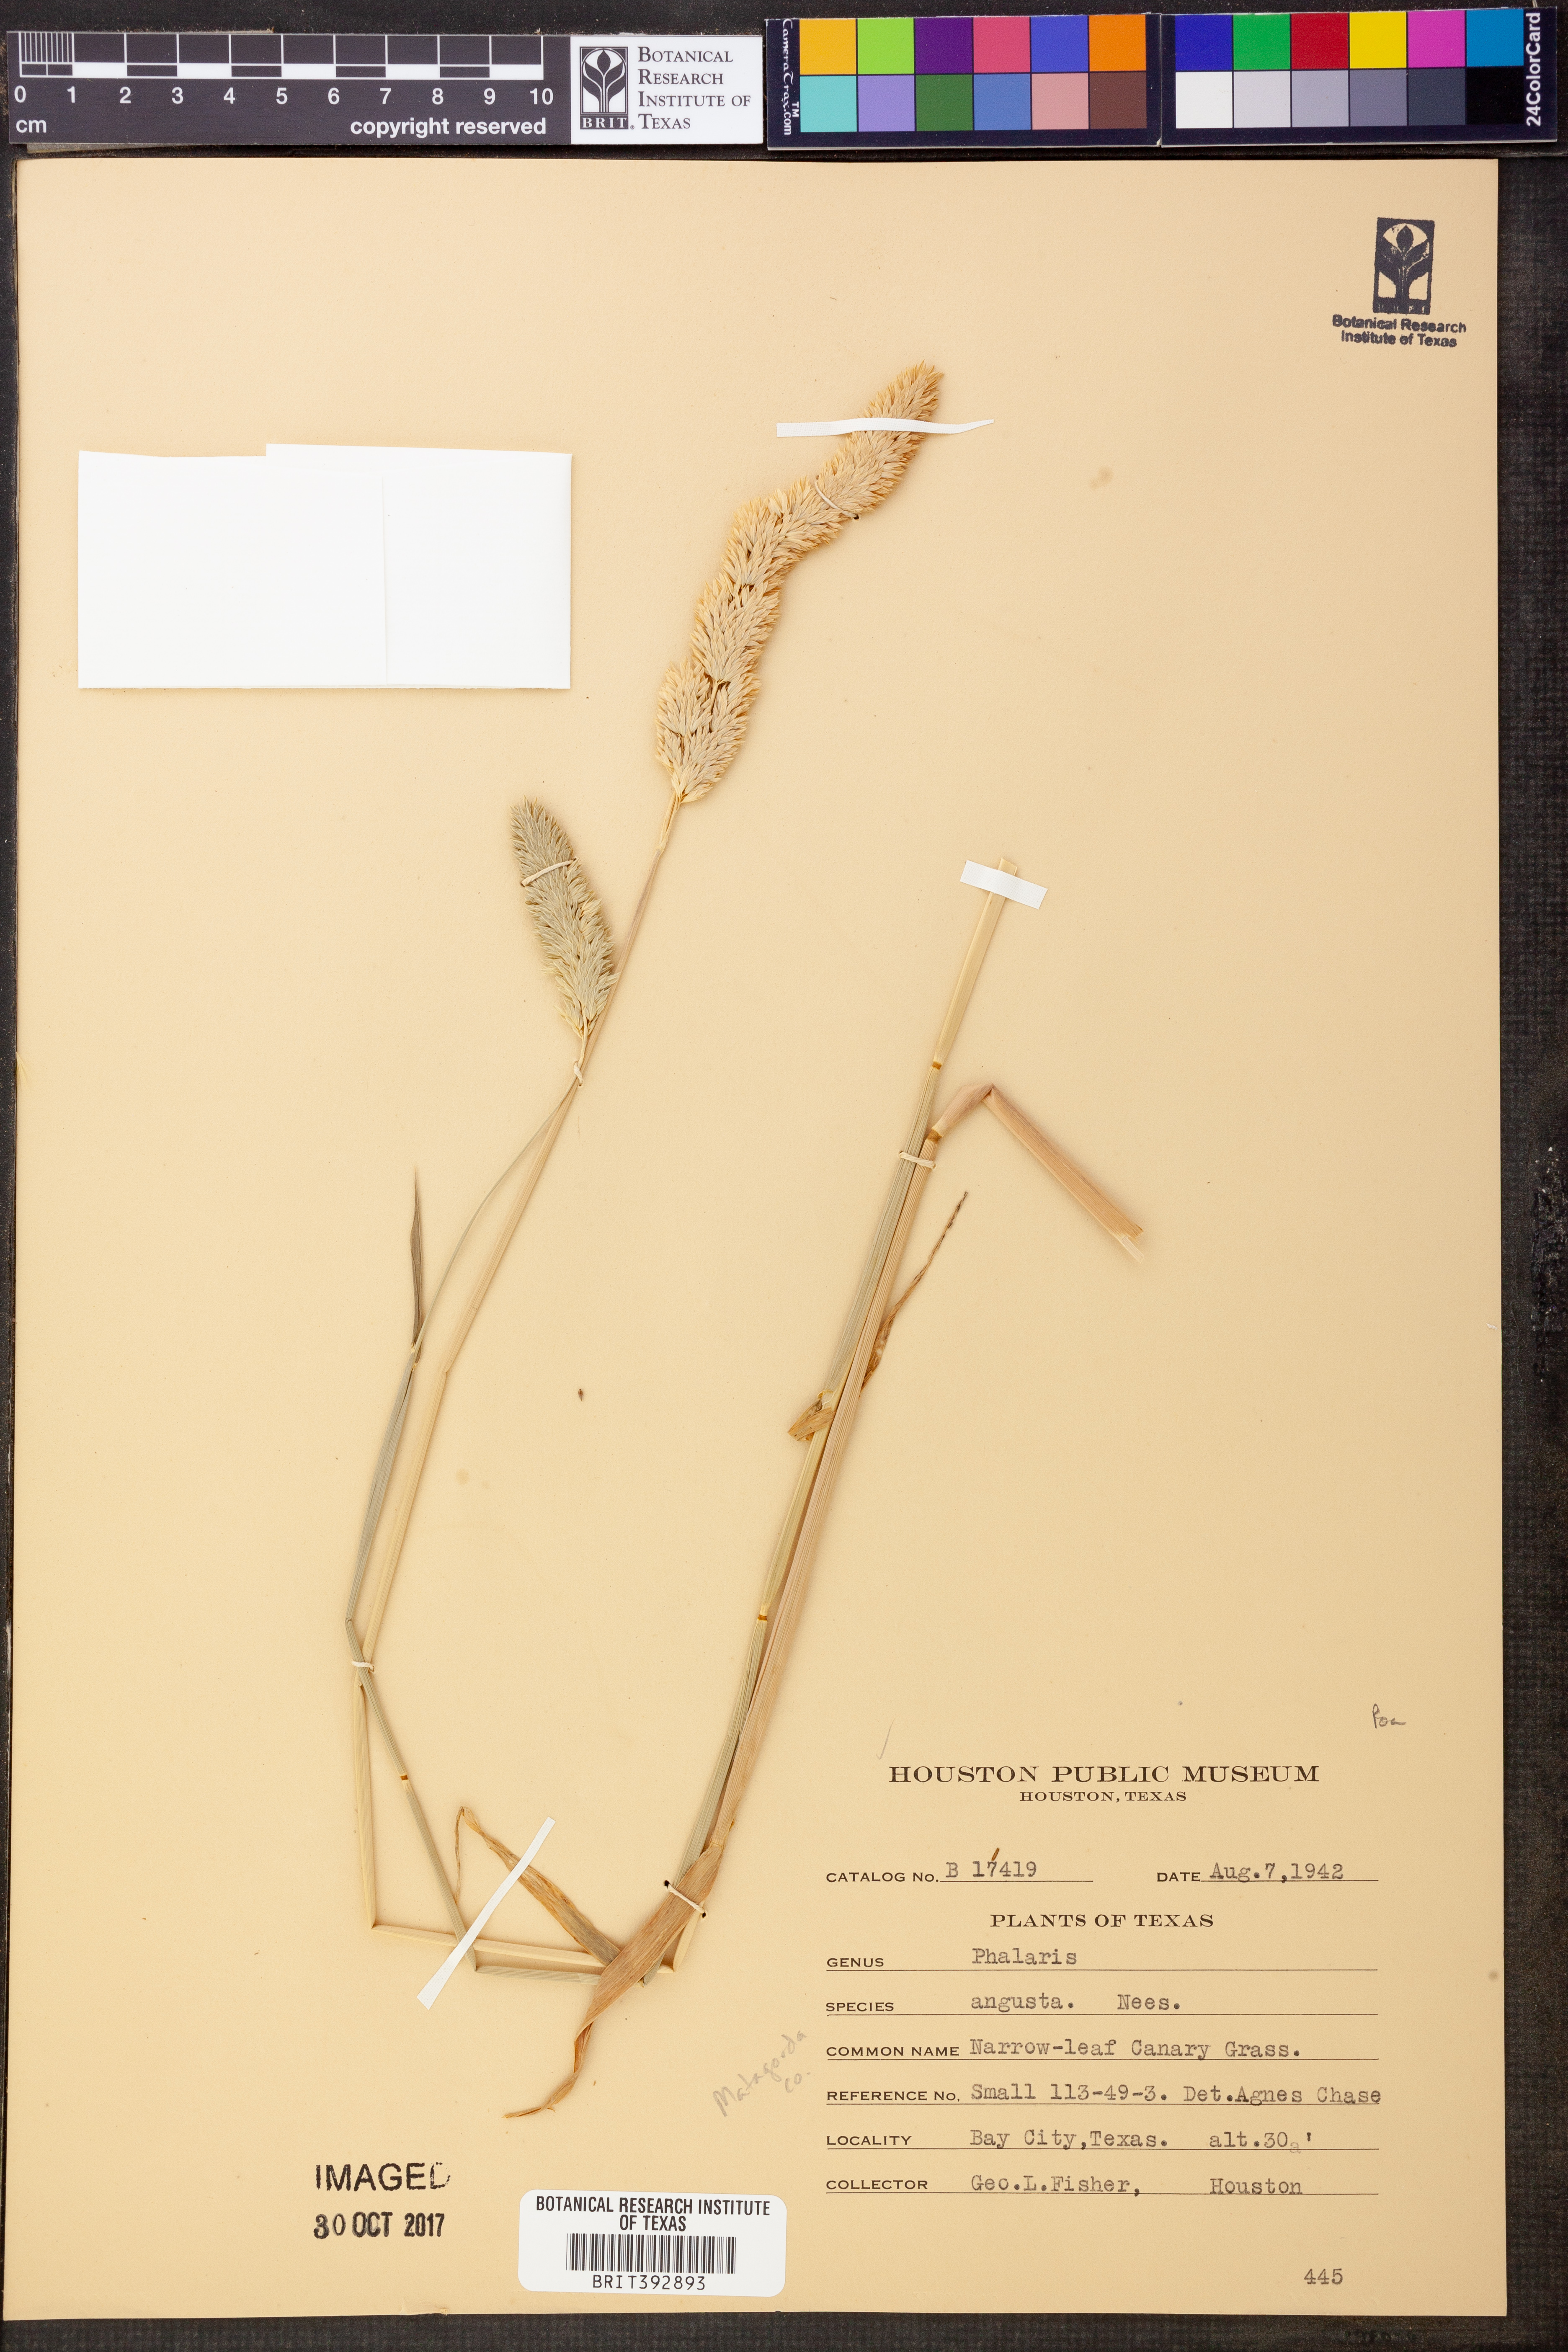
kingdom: Plantae
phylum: Tracheophyta
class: Liliopsida
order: Poales
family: Poaceae
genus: Phalaris
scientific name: Phalaris angusta
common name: Narrow canary grass
